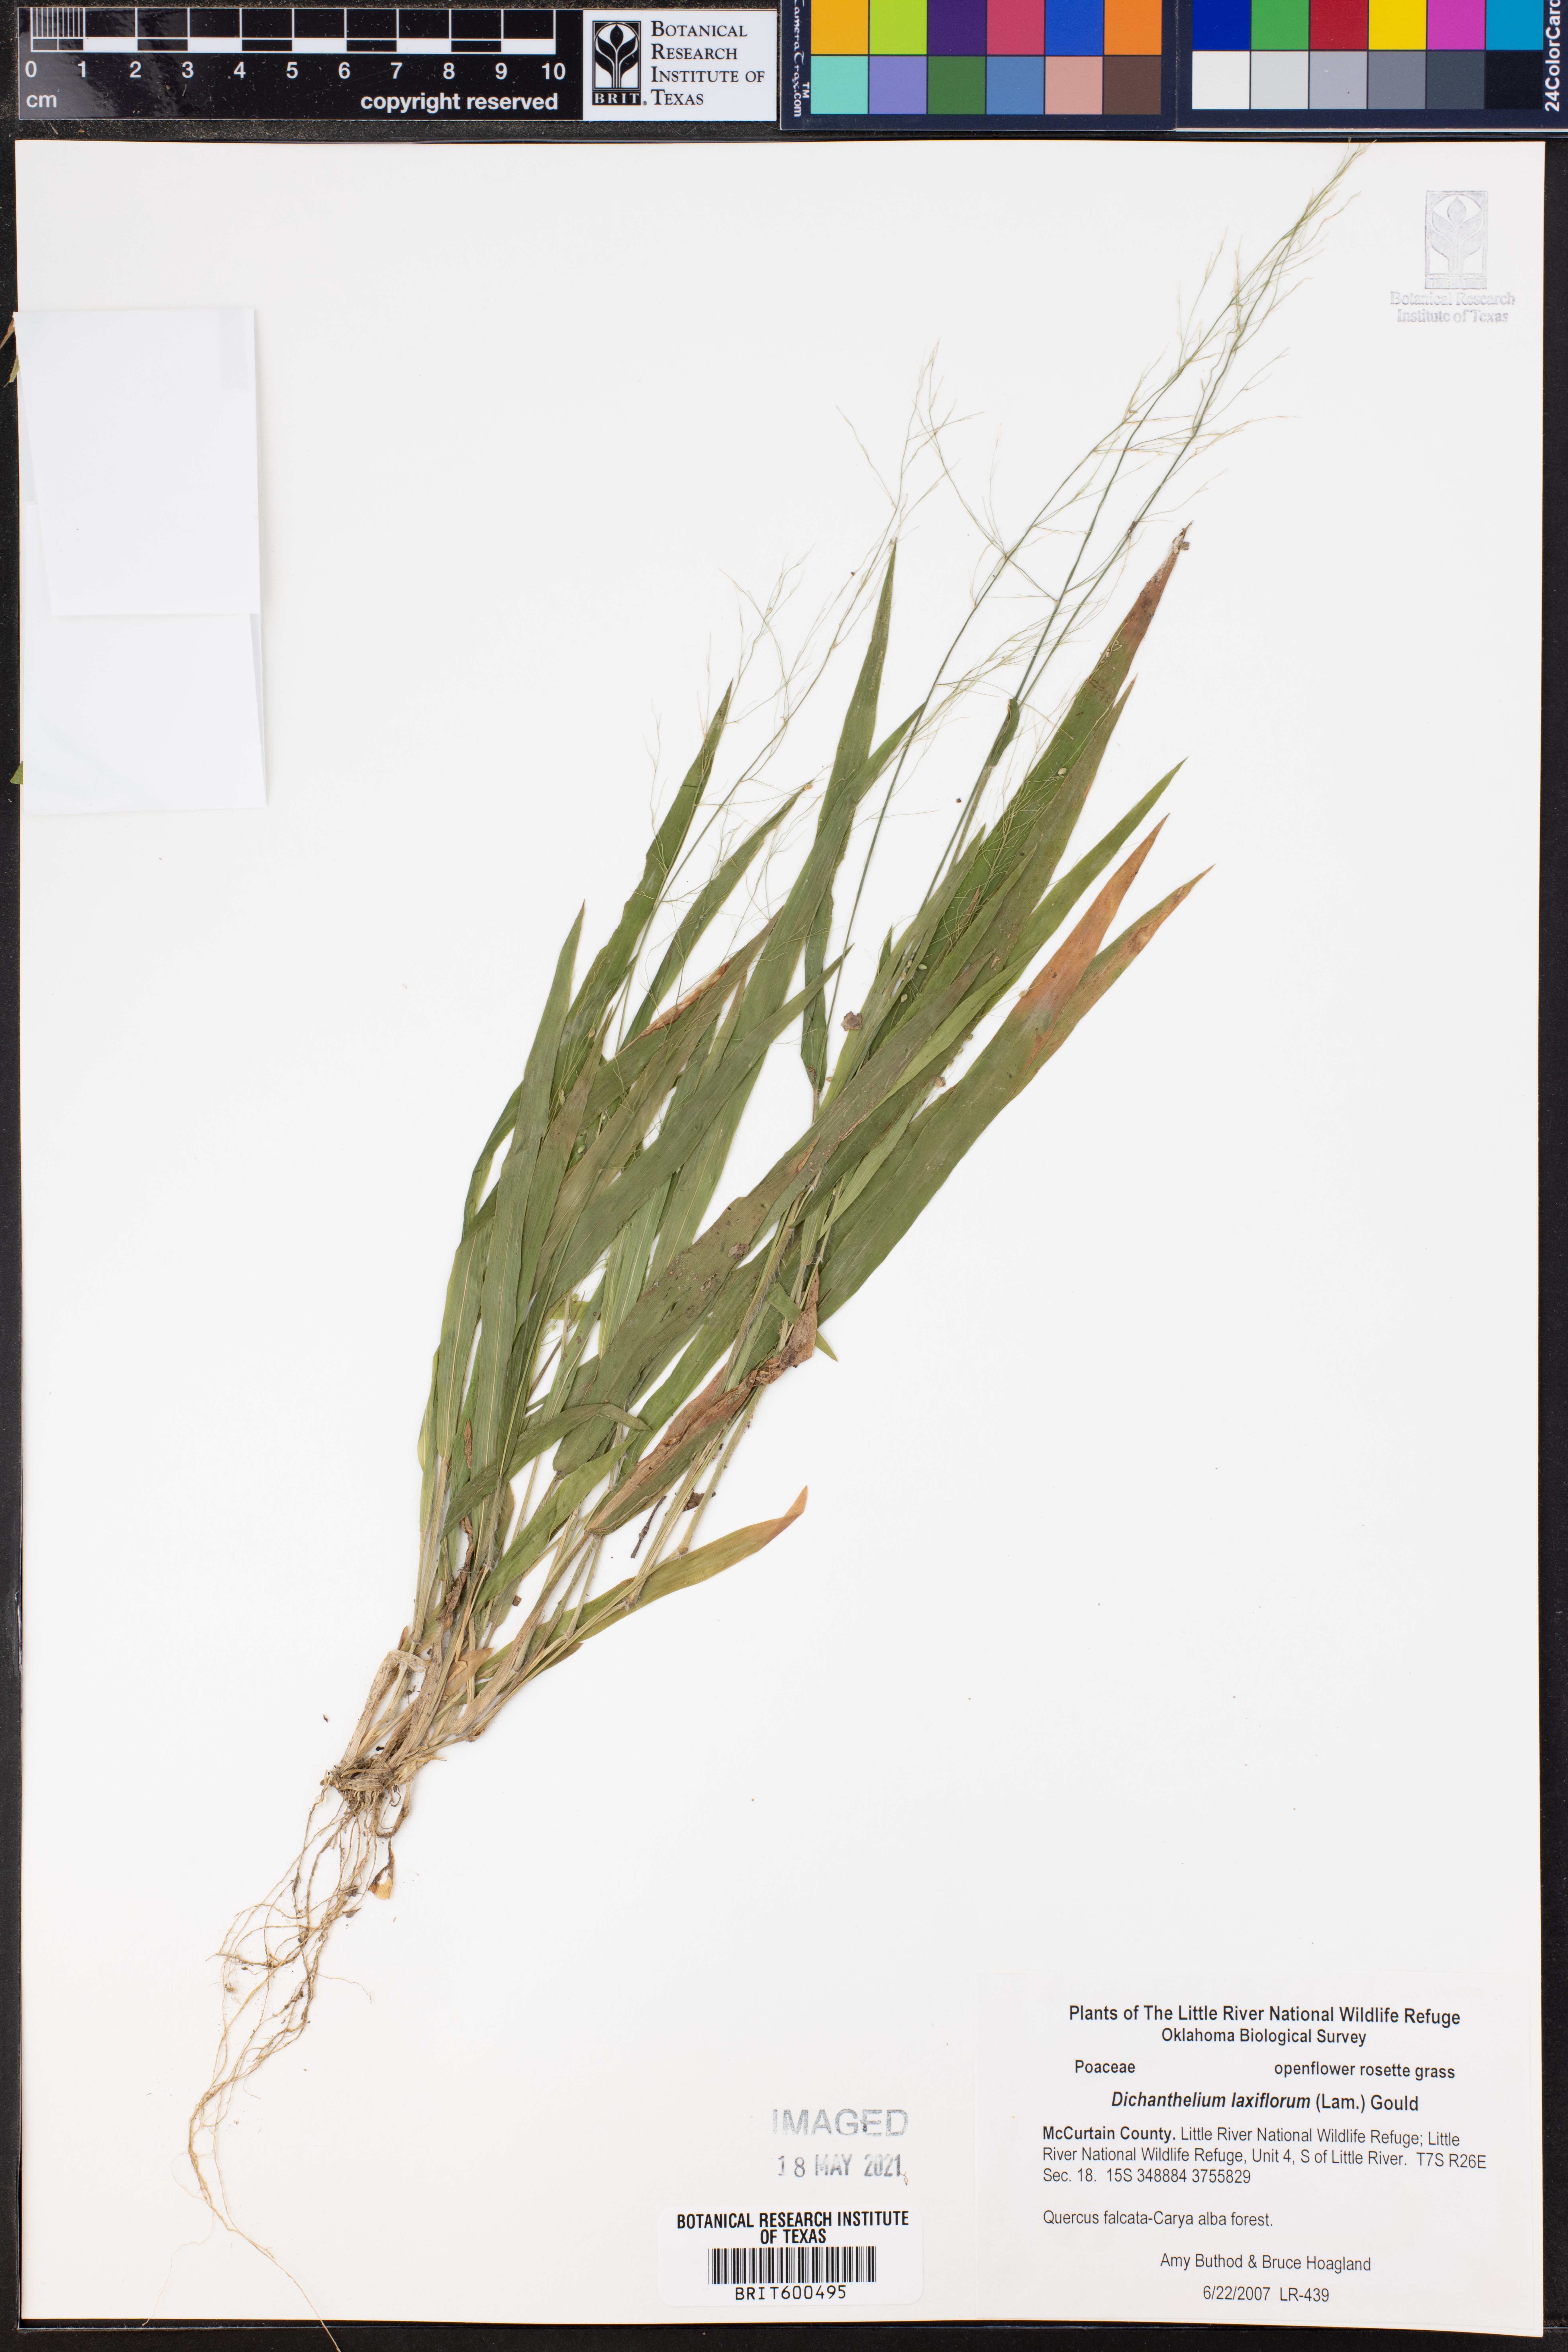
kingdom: Plantae
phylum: Tracheophyta
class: Liliopsida
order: Poales
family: Poaceae
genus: Dichanthelium
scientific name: Dichanthelium laxiflorum
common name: Soft-tuft panic grass
